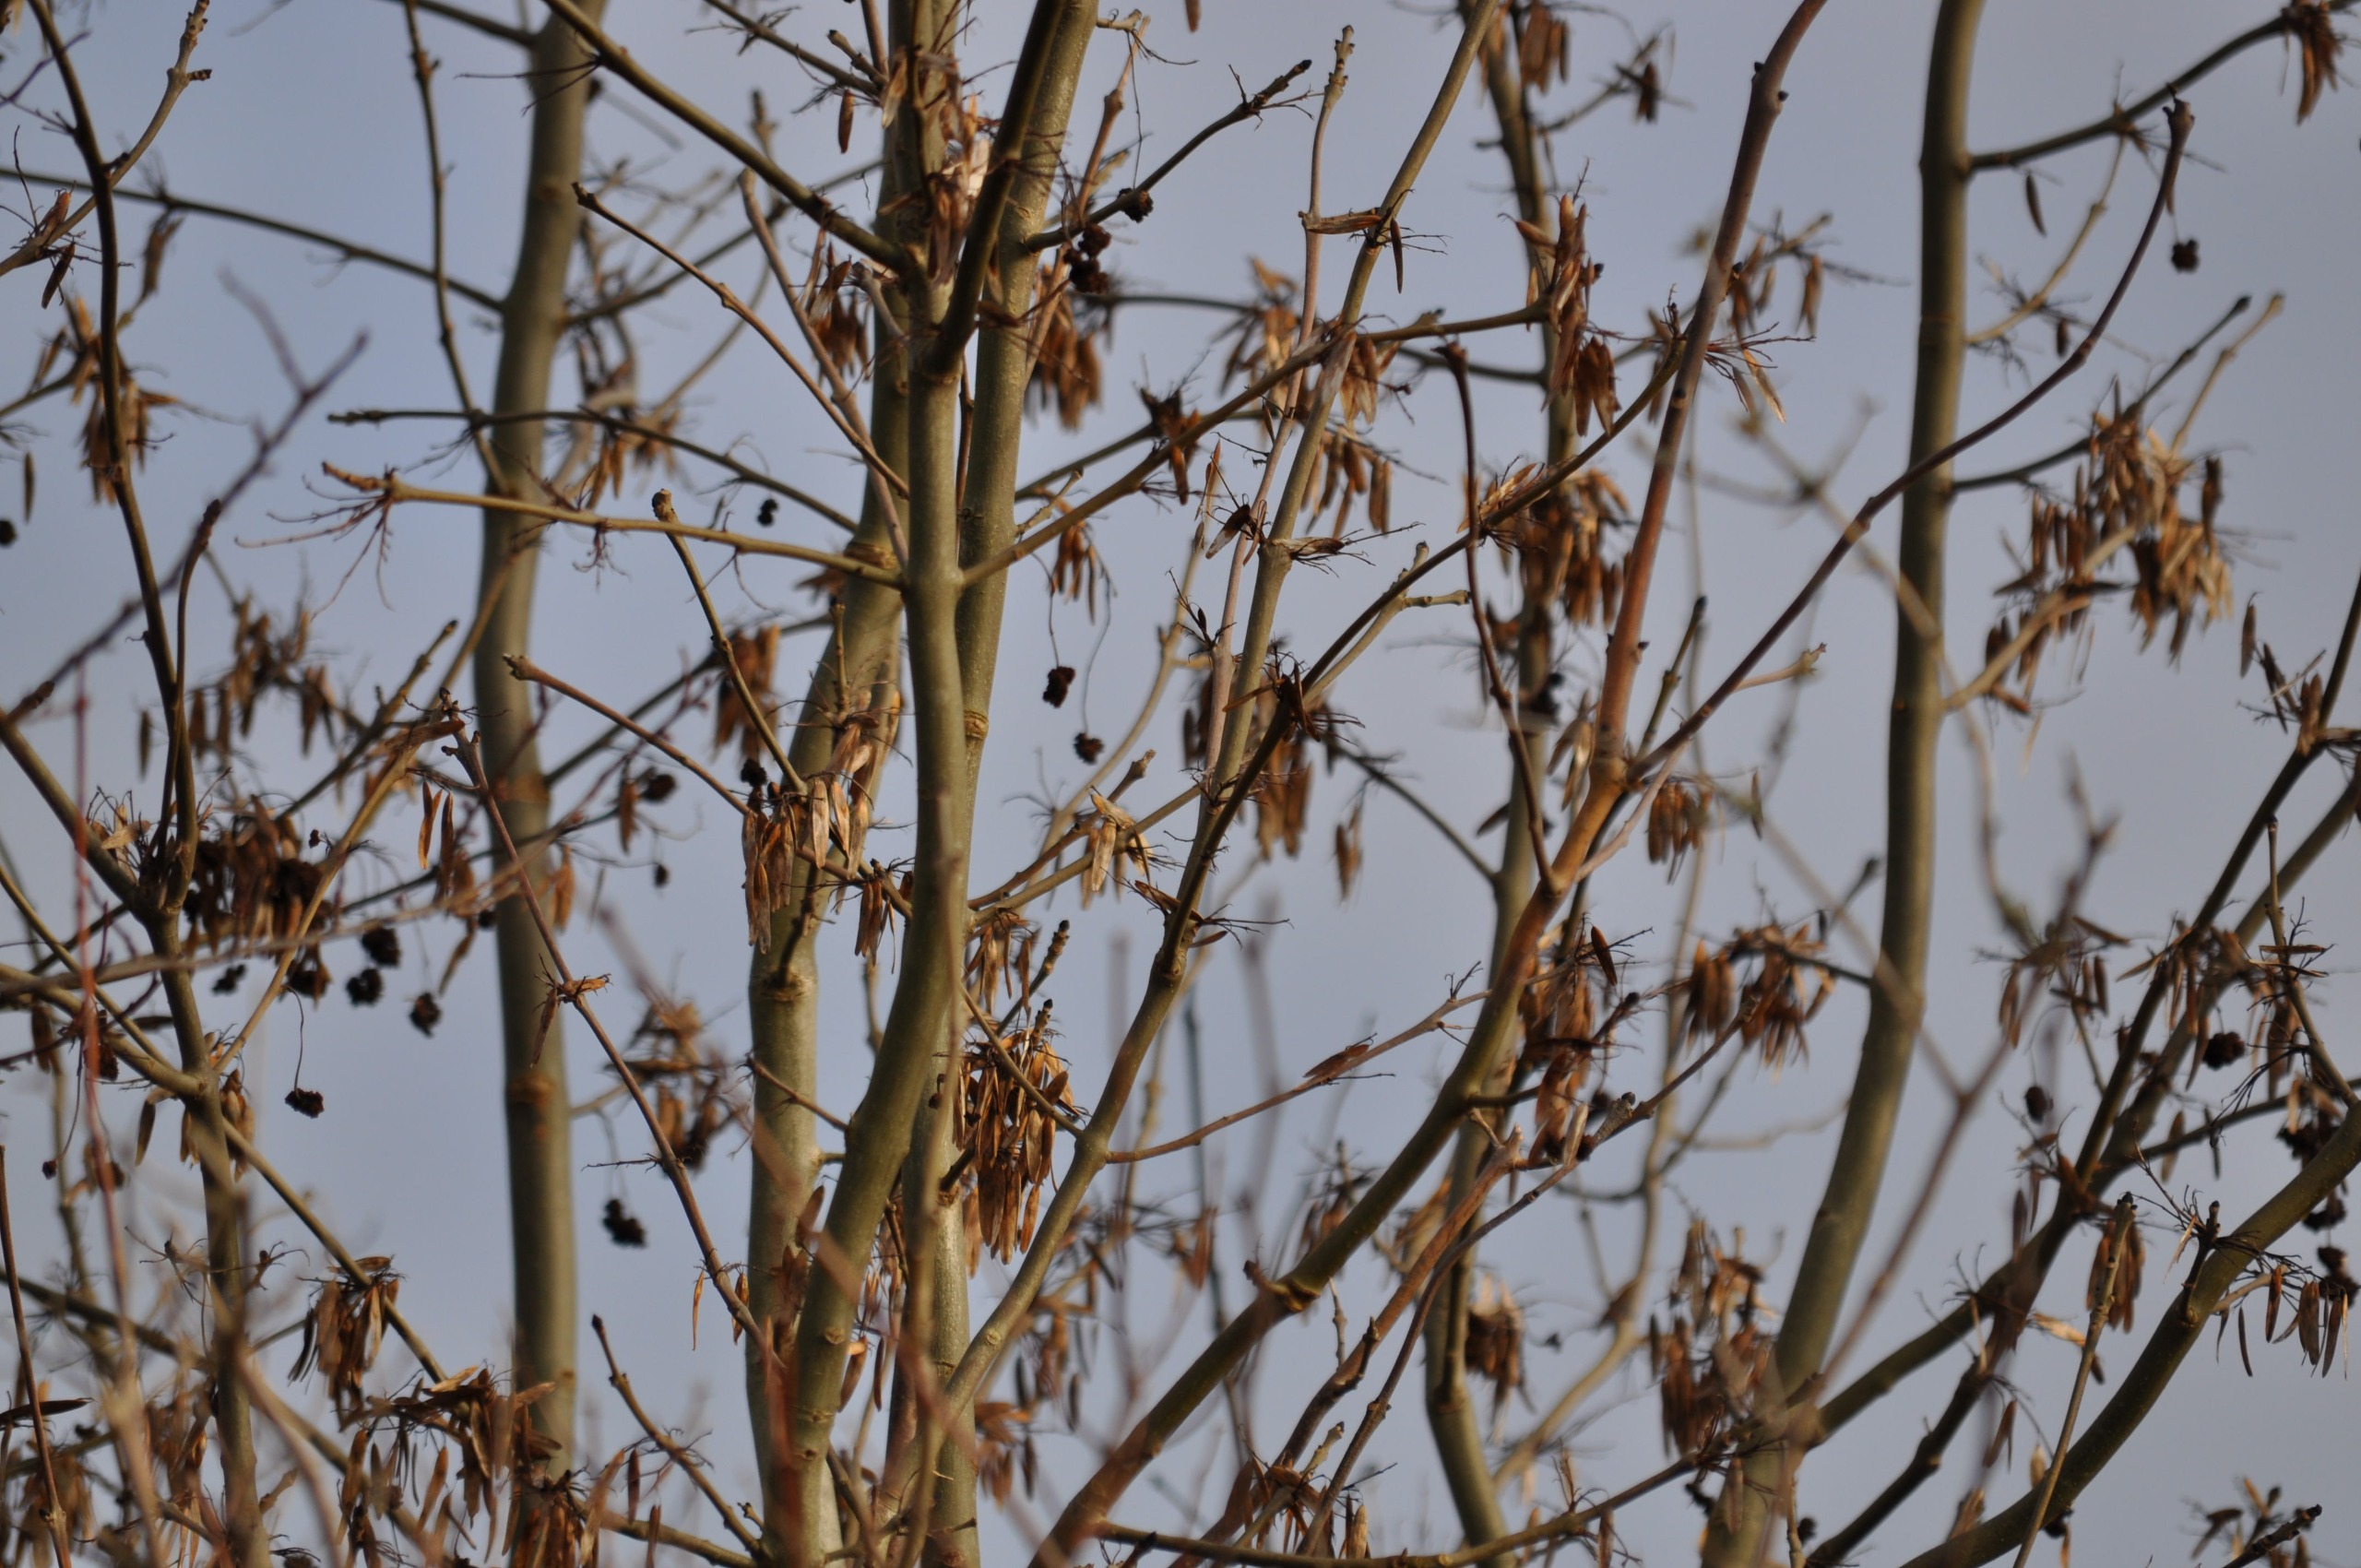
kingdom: Plantae
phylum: Tracheophyta
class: Magnoliopsida
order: Lamiales
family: Oleaceae
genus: Fraxinus
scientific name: Fraxinus excelsior
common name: Ask
